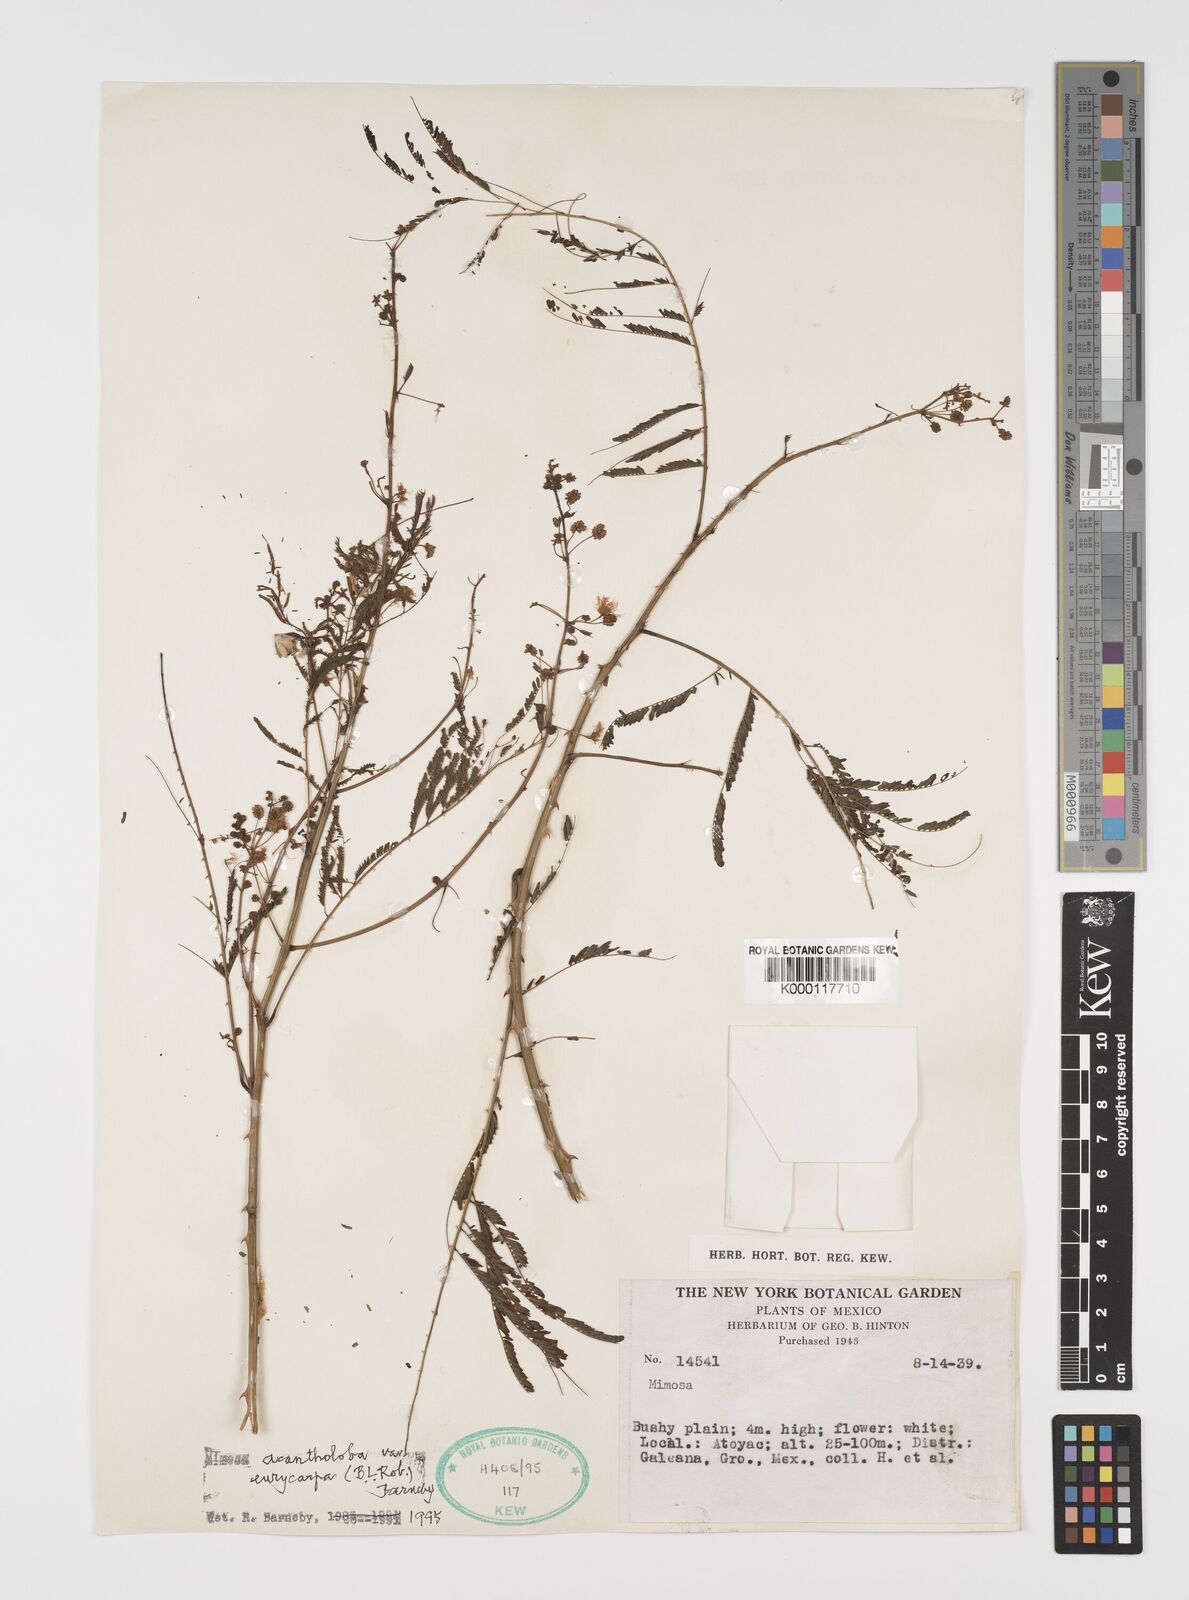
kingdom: Plantae
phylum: Tracheophyta
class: Magnoliopsida
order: Fabales
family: Fabaceae
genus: Mimosa
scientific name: Mimosa acantholoba
